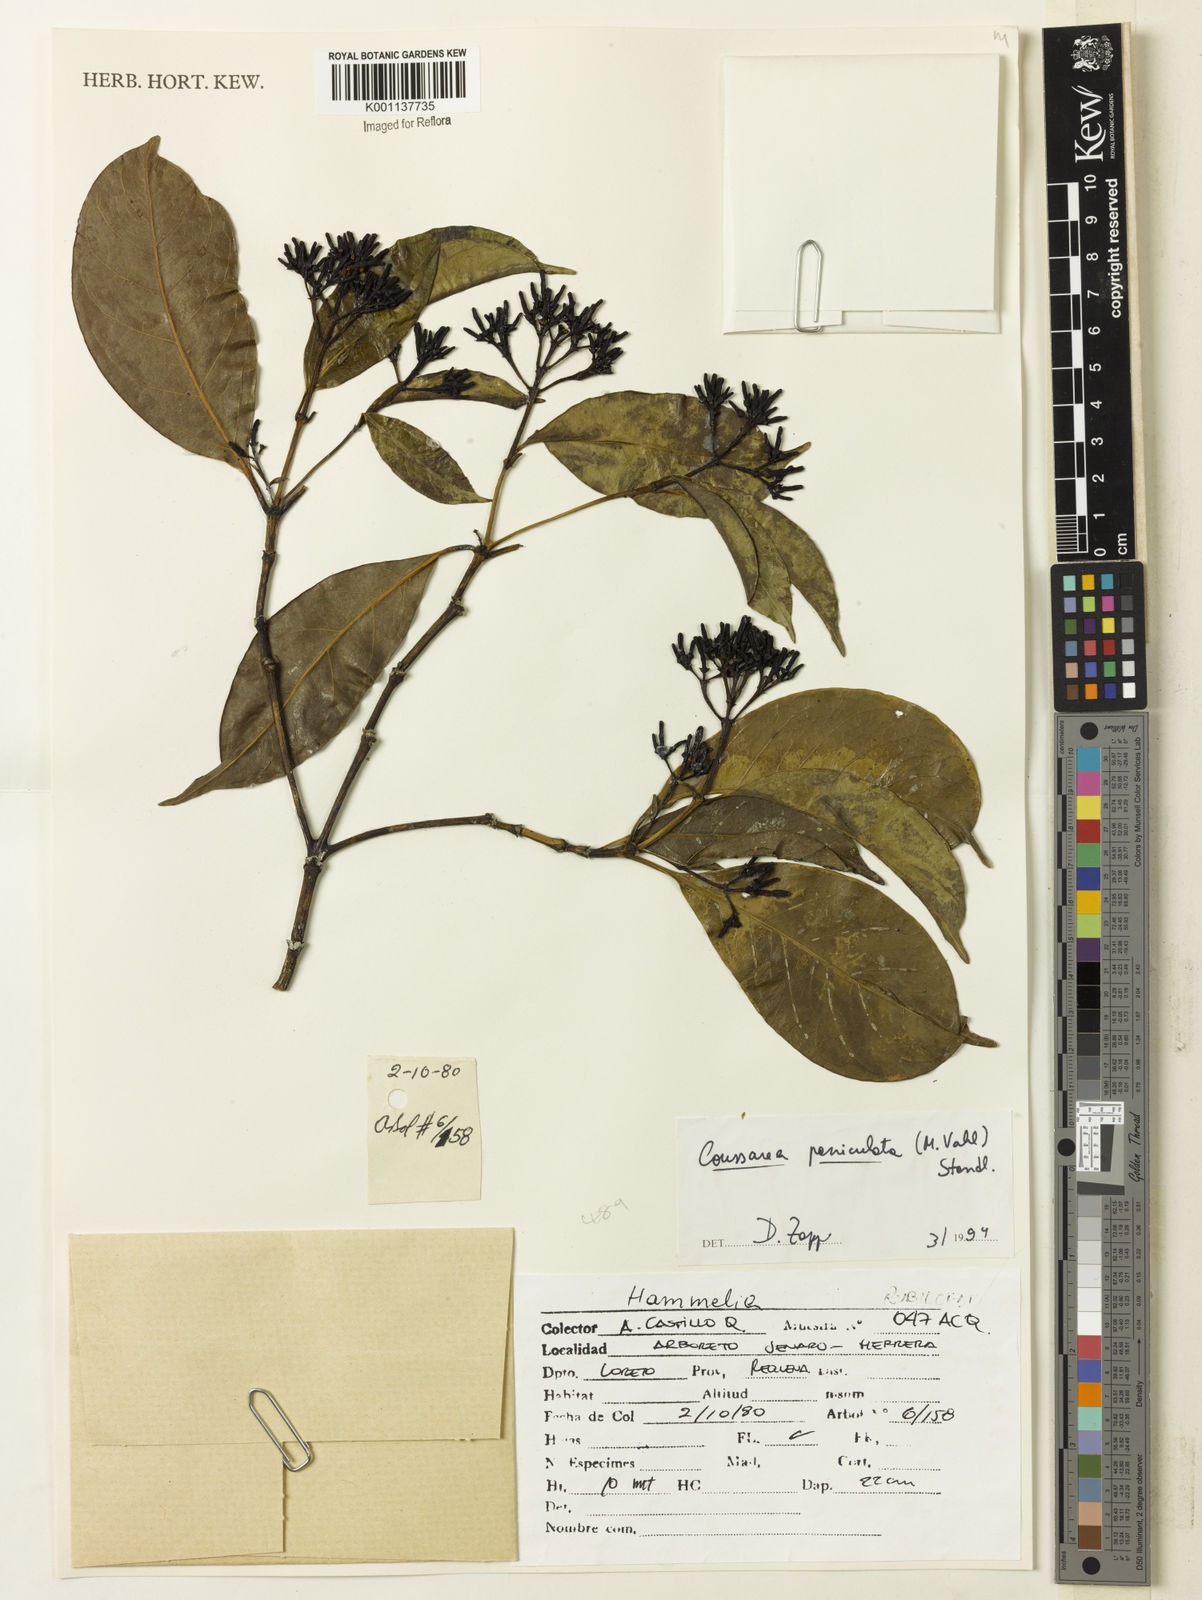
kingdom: Plantae
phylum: Tracheophyta
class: Magnoliopsida
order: Gentianales
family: Rubiaceae
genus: Coussarea
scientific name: Coussarea paniculata
